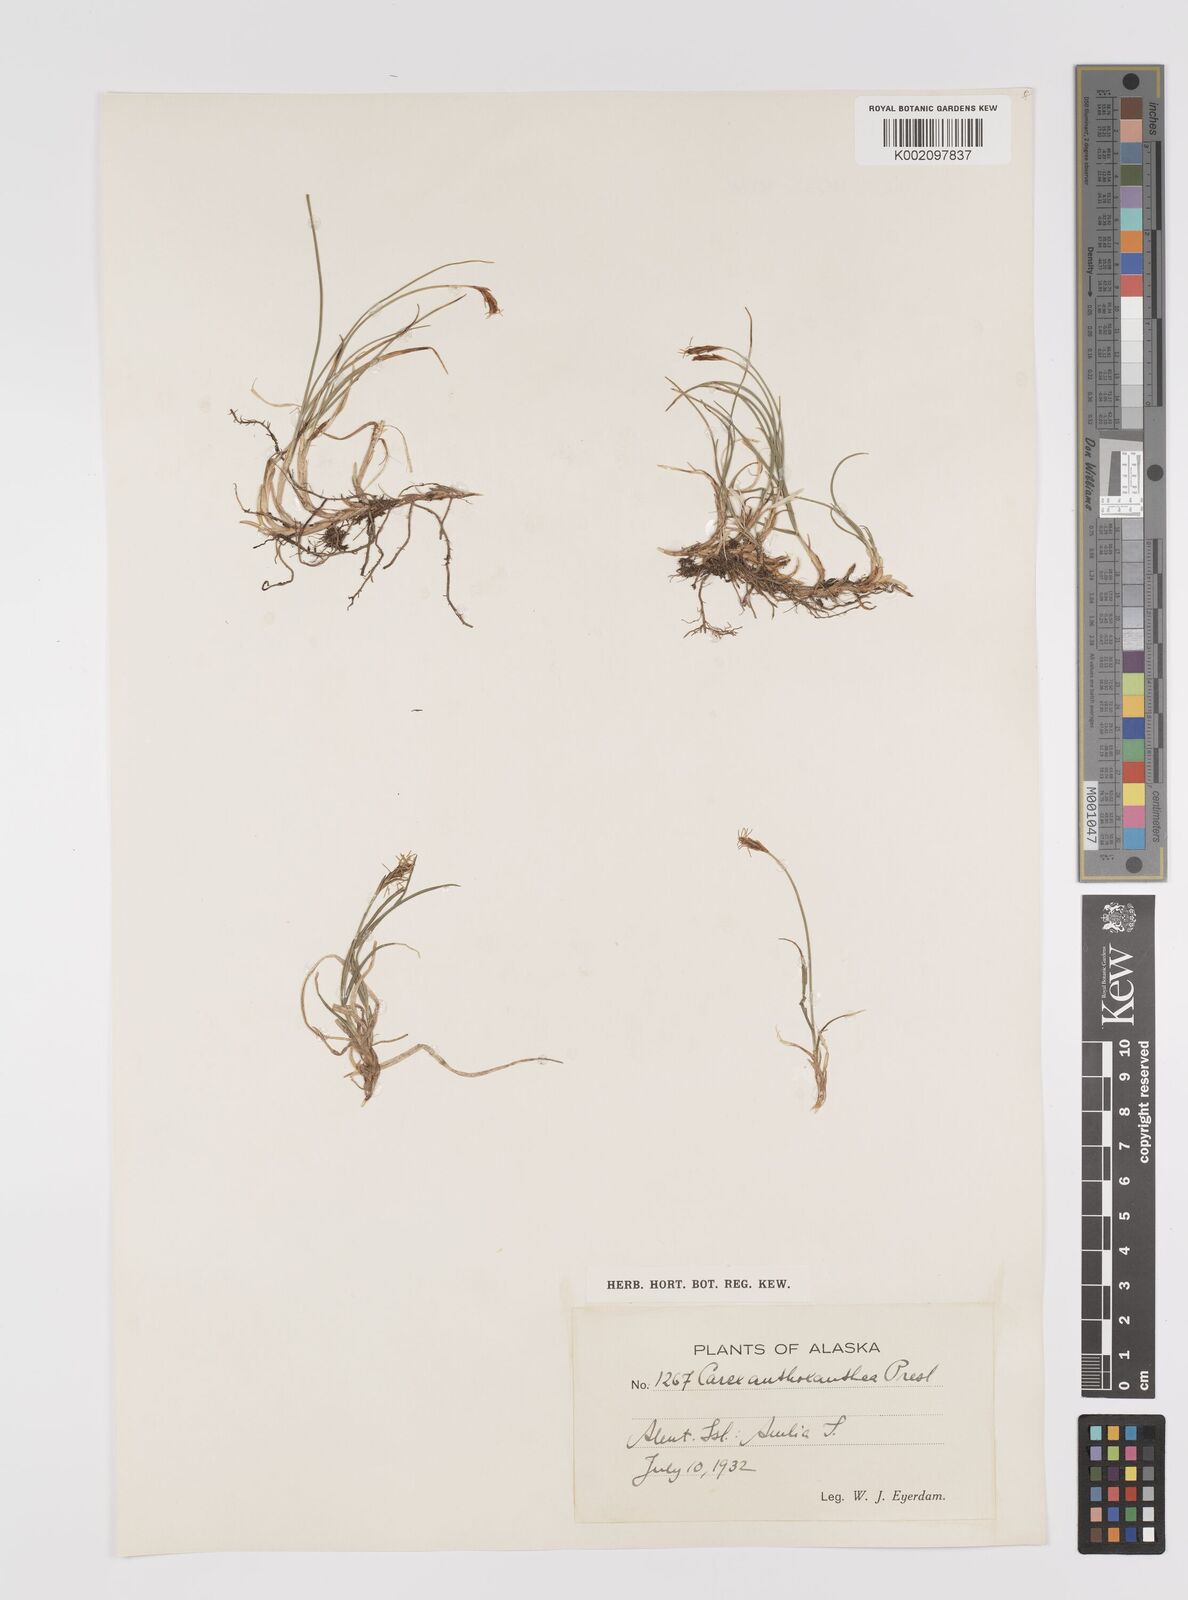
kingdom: Plantae
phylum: Tracheophyta
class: Liliopsida
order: Poales
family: Cyperaceae
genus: Carex
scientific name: Carex anthoxanthea
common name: Grassy-slope arctic sedge
